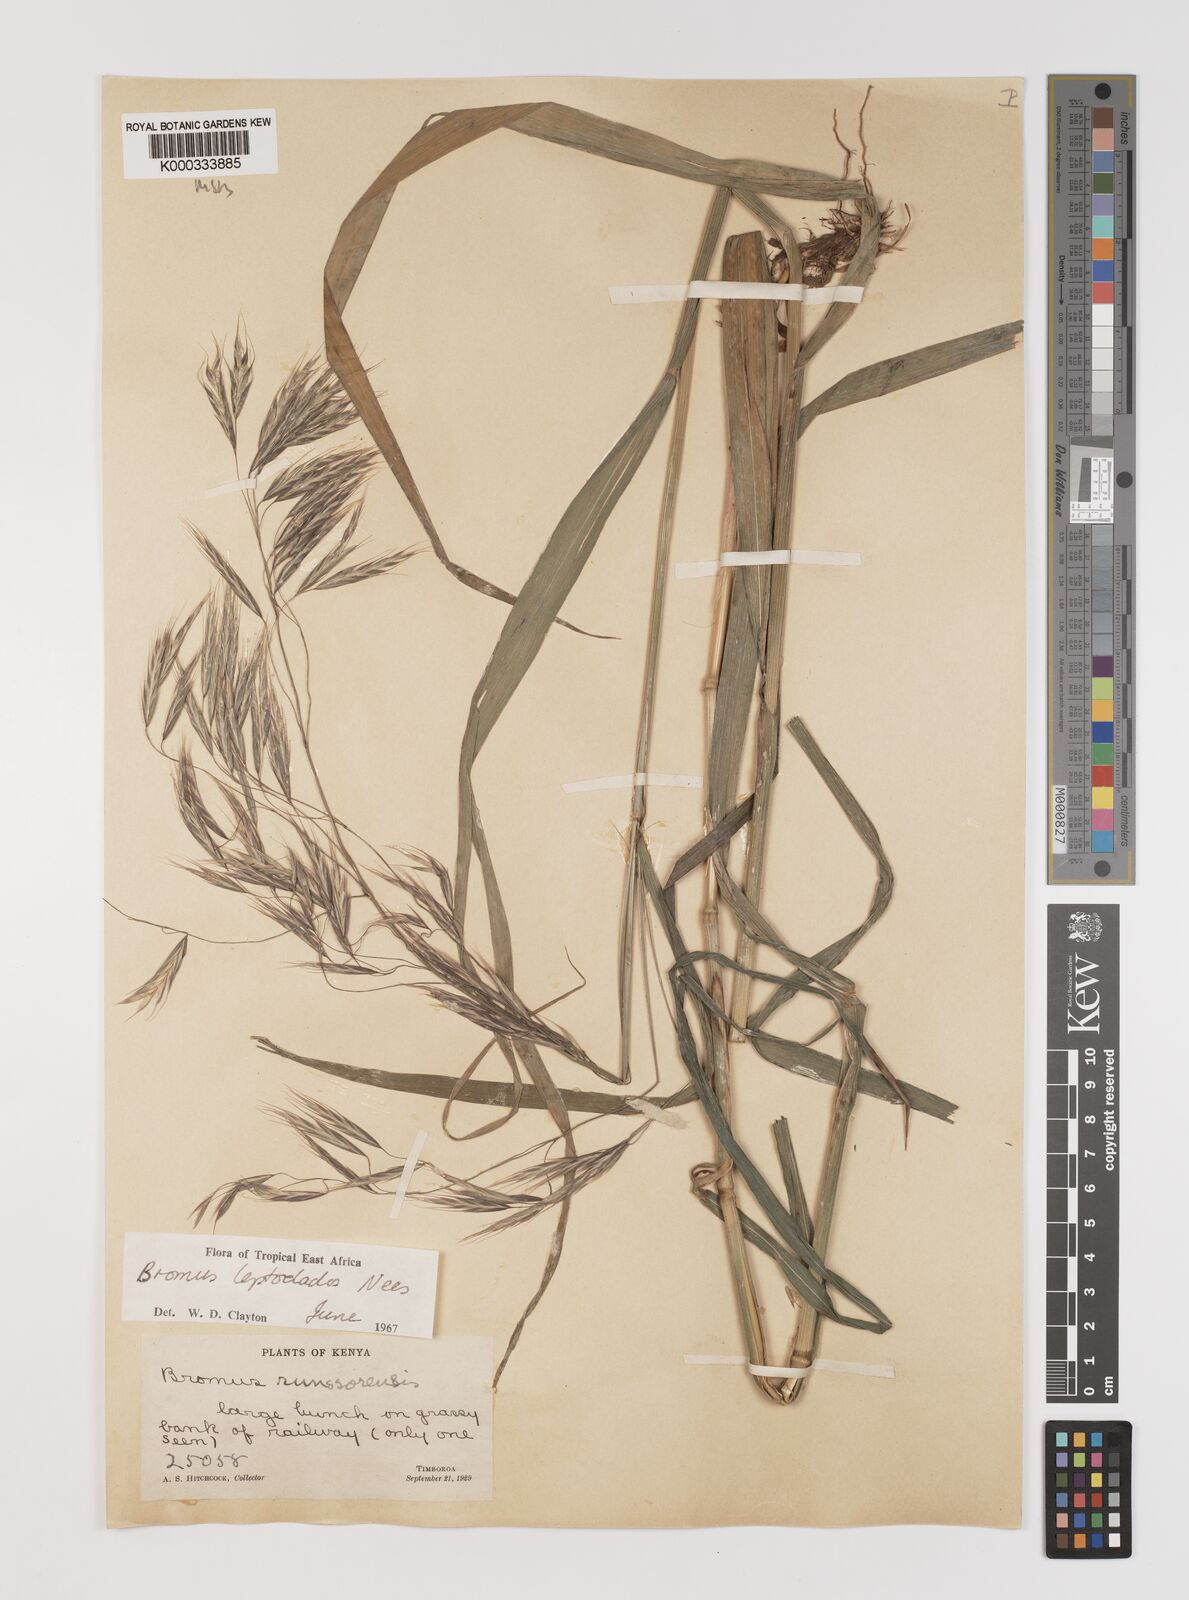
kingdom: Plantae
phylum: Tracheophyta
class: Liliopsida
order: Poales
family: Poaceae
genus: Bromus
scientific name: Bromus leptoclados
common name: Mountain bromegrass
